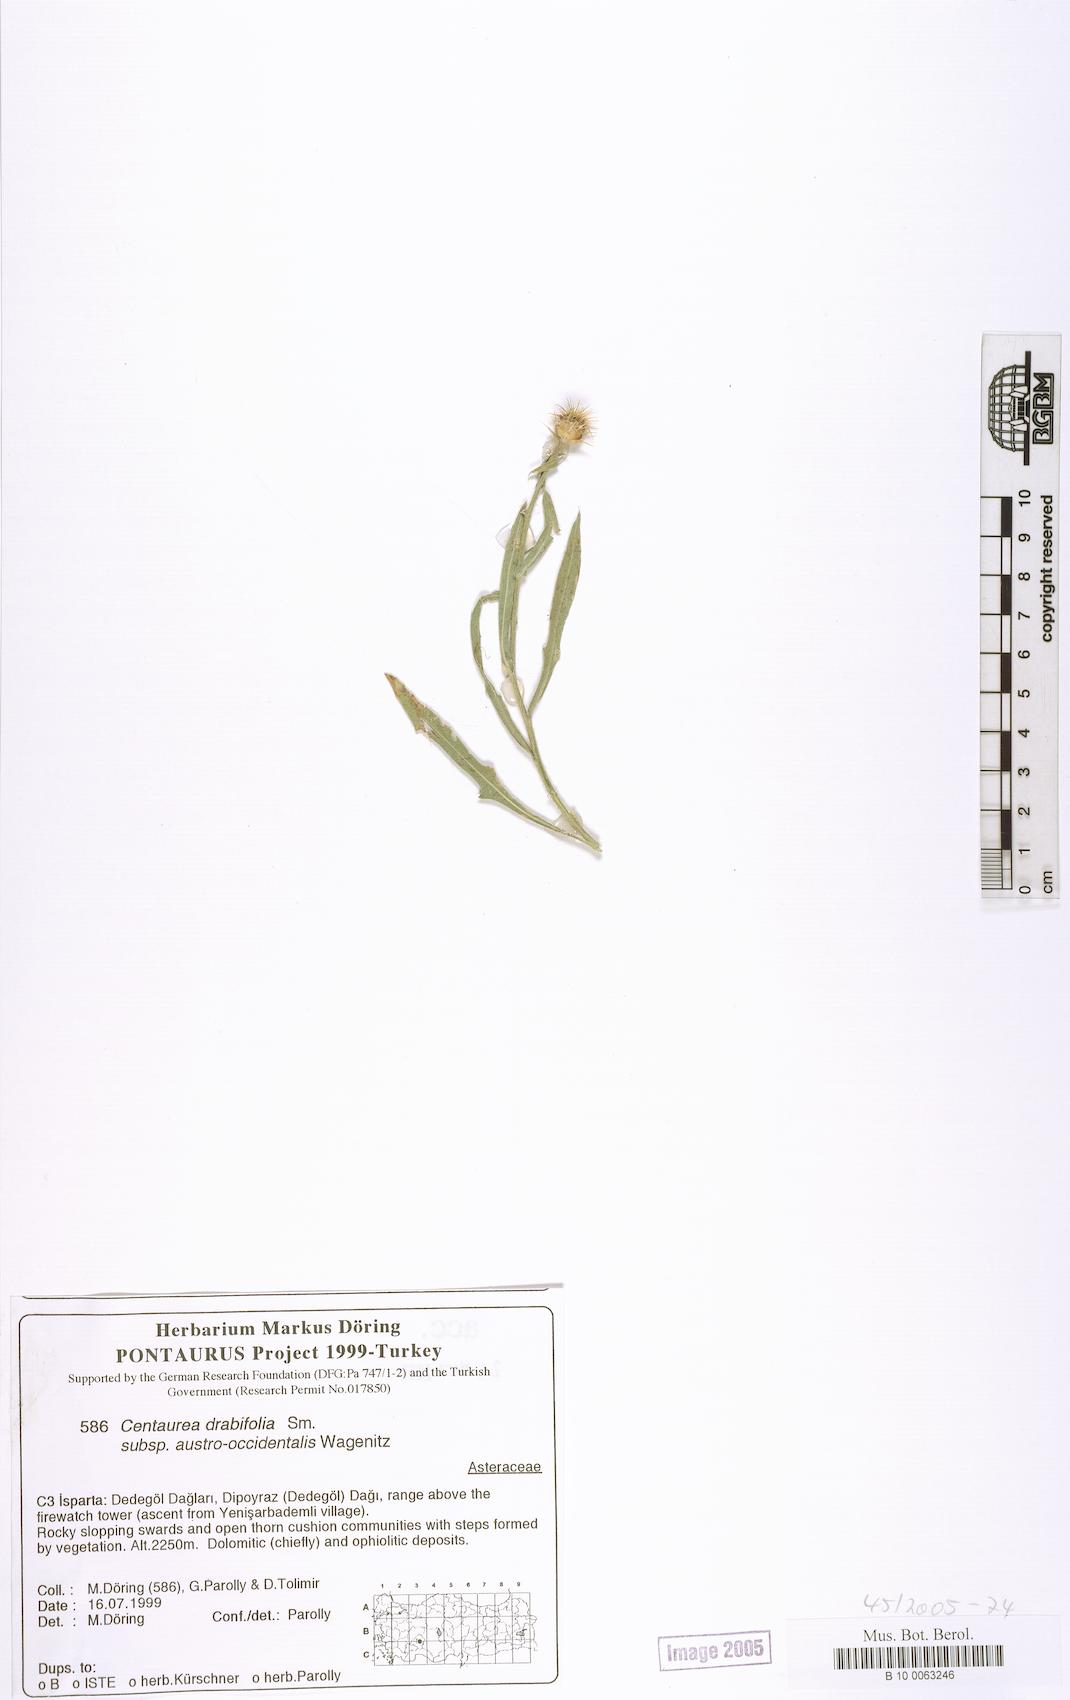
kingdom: Plantae
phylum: Tracheophyta
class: Magnoliopsida
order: Asterales
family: Asteraceae
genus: Centaurea
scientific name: Centaurea drabifolia
